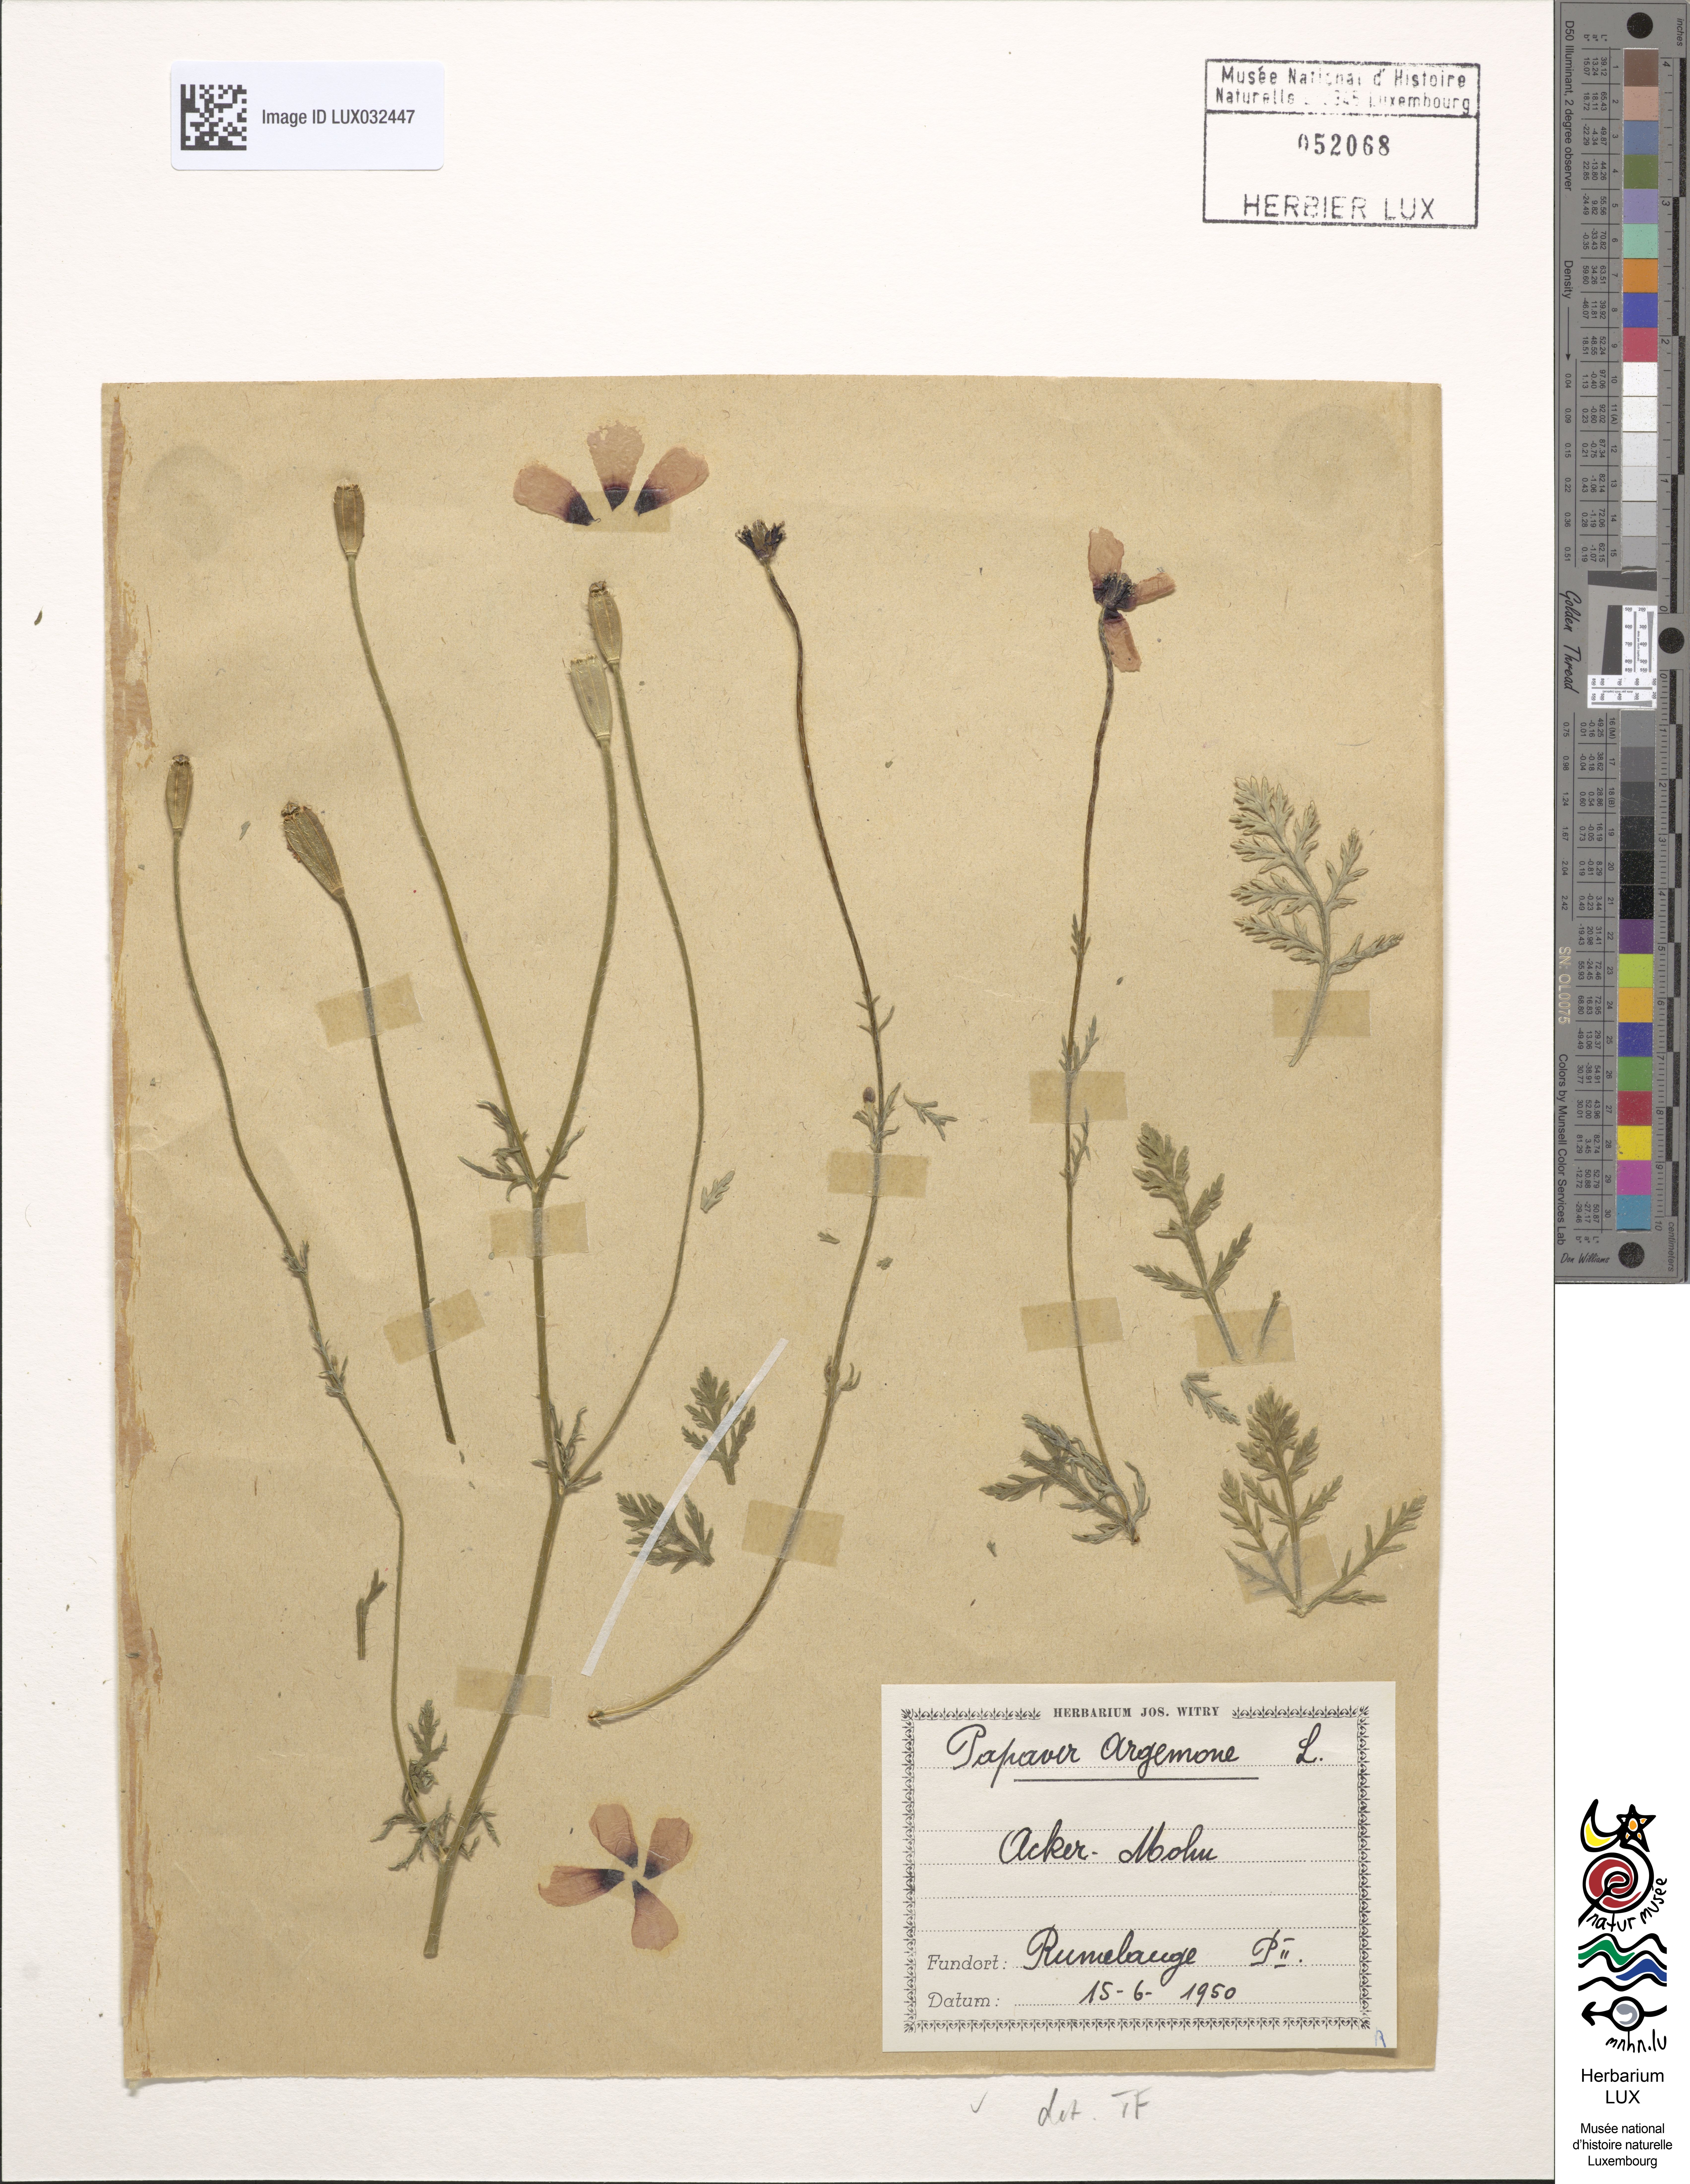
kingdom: Plantae
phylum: Tracheophyta
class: Magnoliopsida
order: Ranunculales
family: Papaveraceae
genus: Roemeria
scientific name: Roemeria argemone
